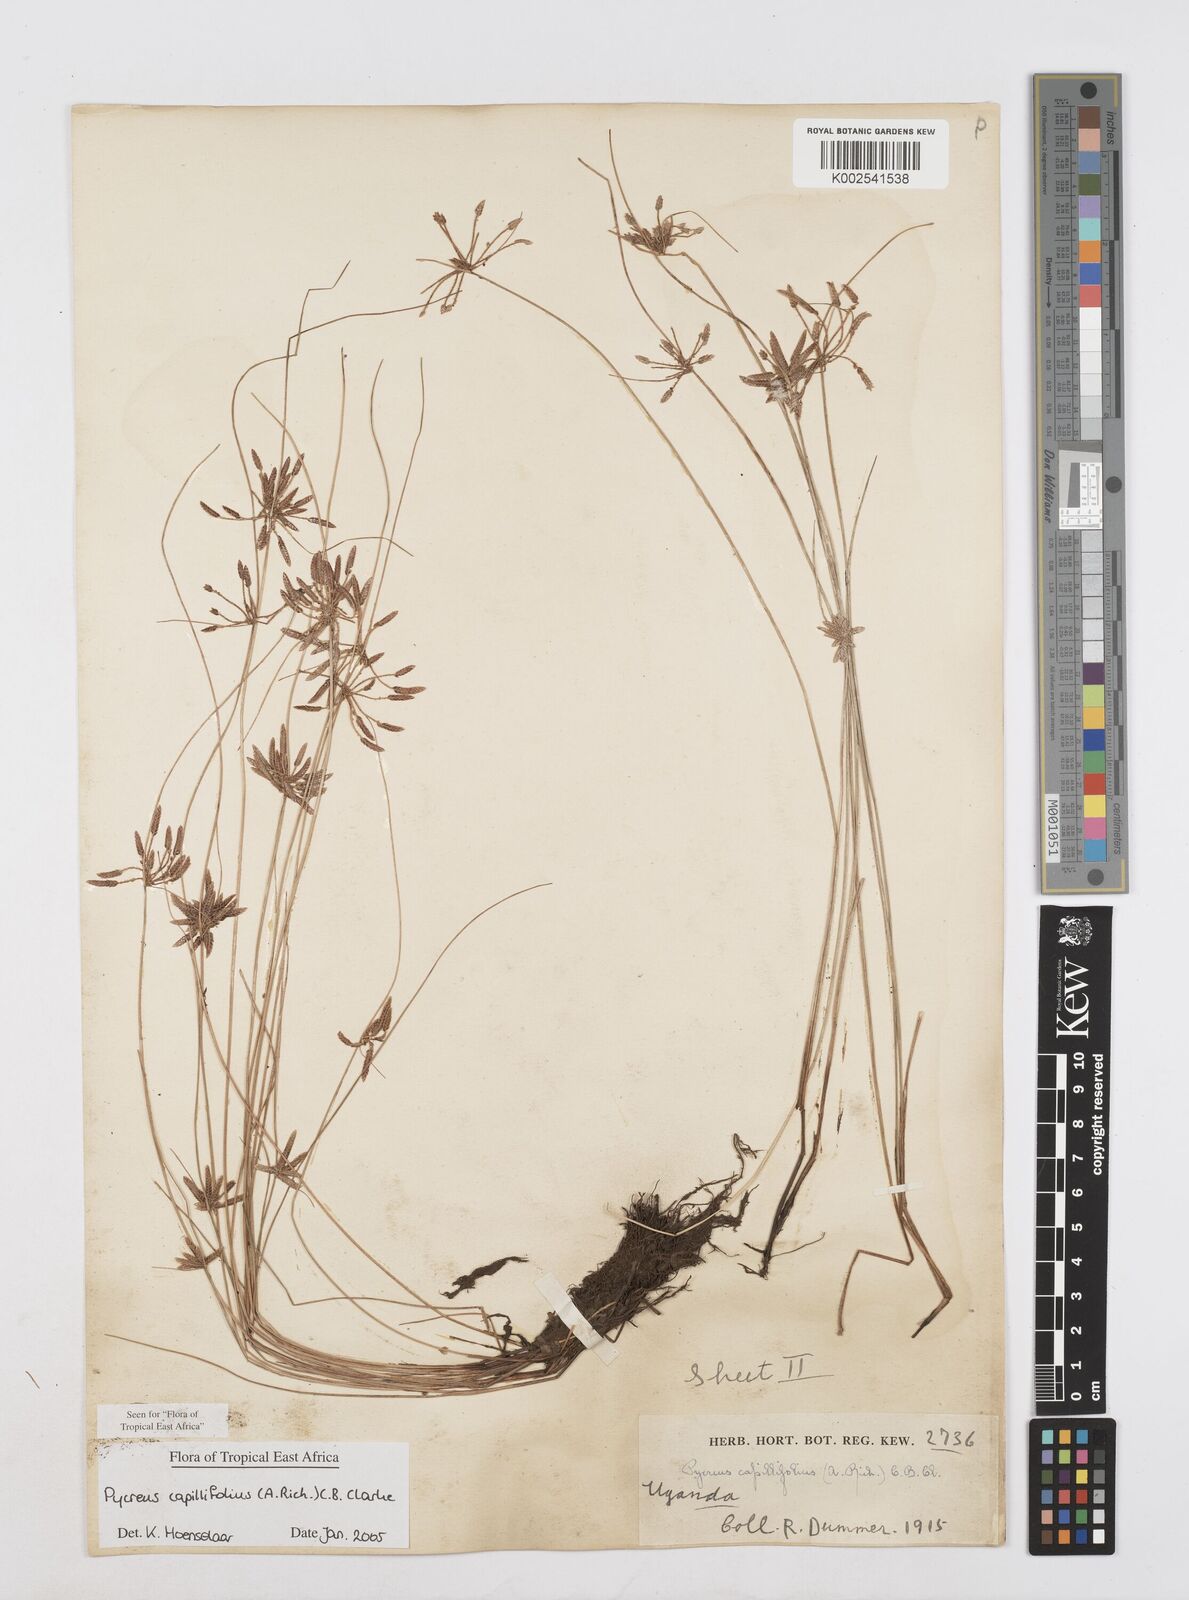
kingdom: Plantae
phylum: Tracheophyta
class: Liliopsida
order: Poales
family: Cyperaceae
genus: Cyperus
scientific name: Cyperus capillifolius
